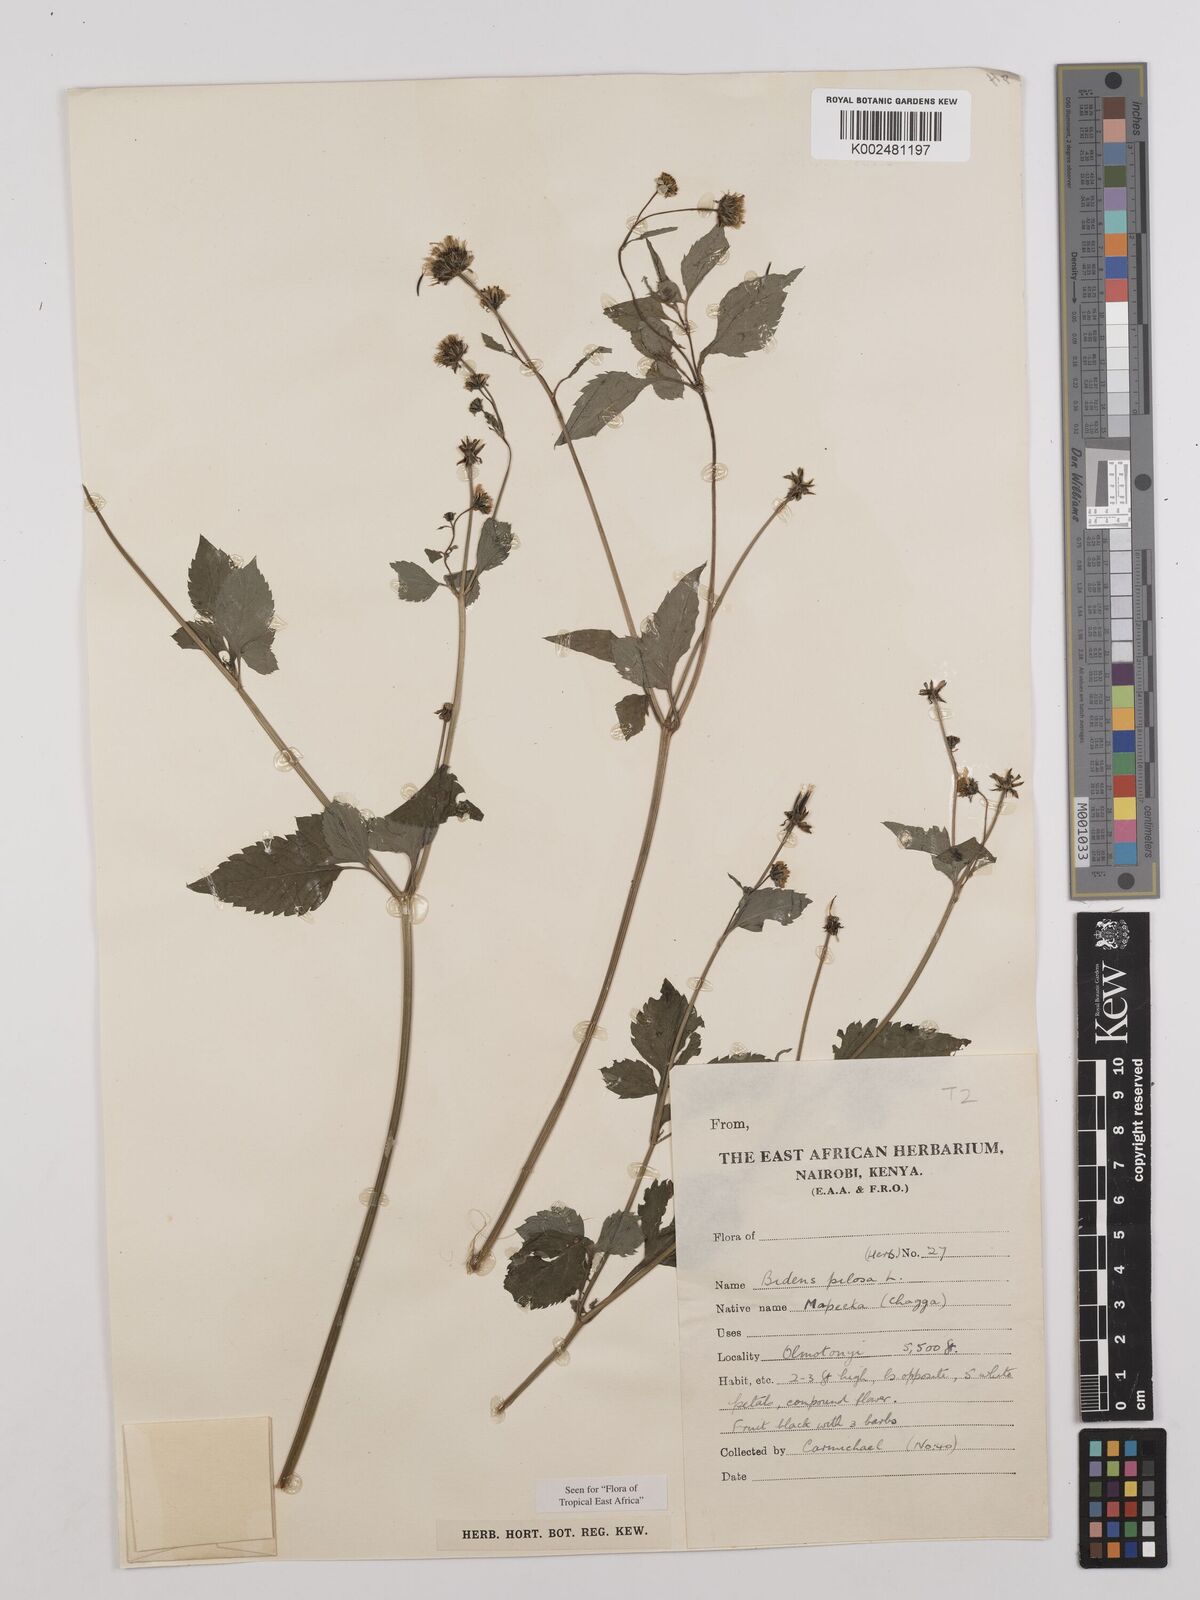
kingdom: Plantae
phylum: Tracheophyta
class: Magnoliopsida
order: Asterales
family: Asteraceae
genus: Bidens
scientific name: Bidens pilosa
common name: Black-jack
